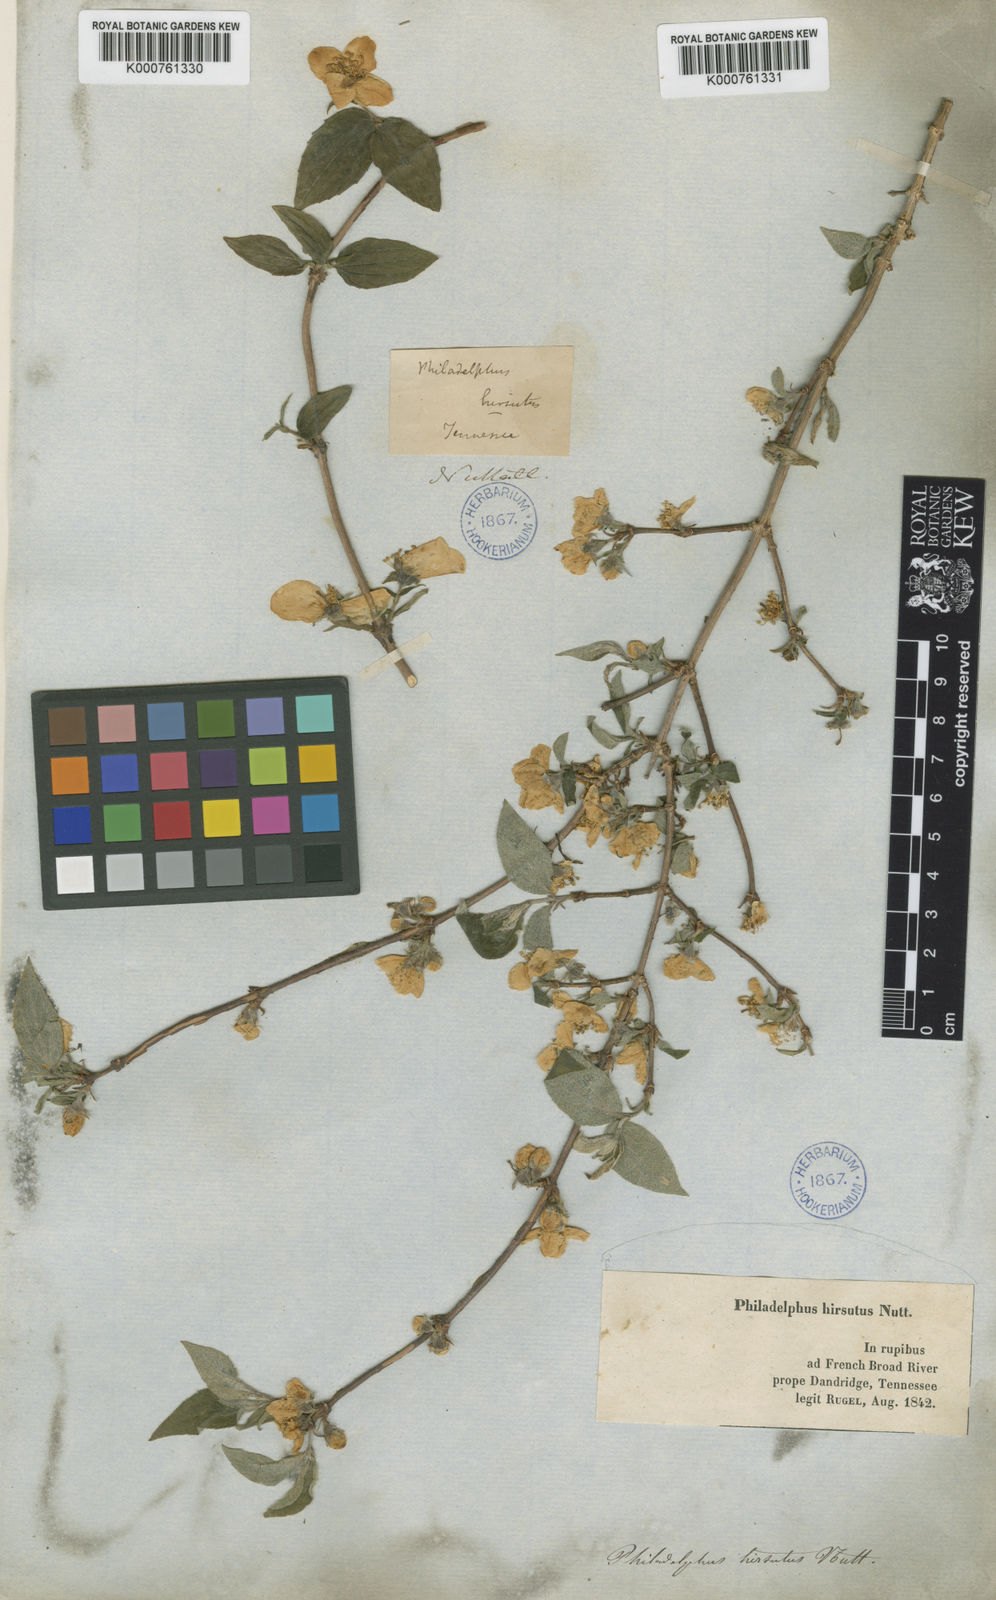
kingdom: Plantae
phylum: Tracheophyta
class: Magnoliopsida
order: Cornales
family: Hydrangeaceae
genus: Philadelphus
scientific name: Philadelphus hirsutus
